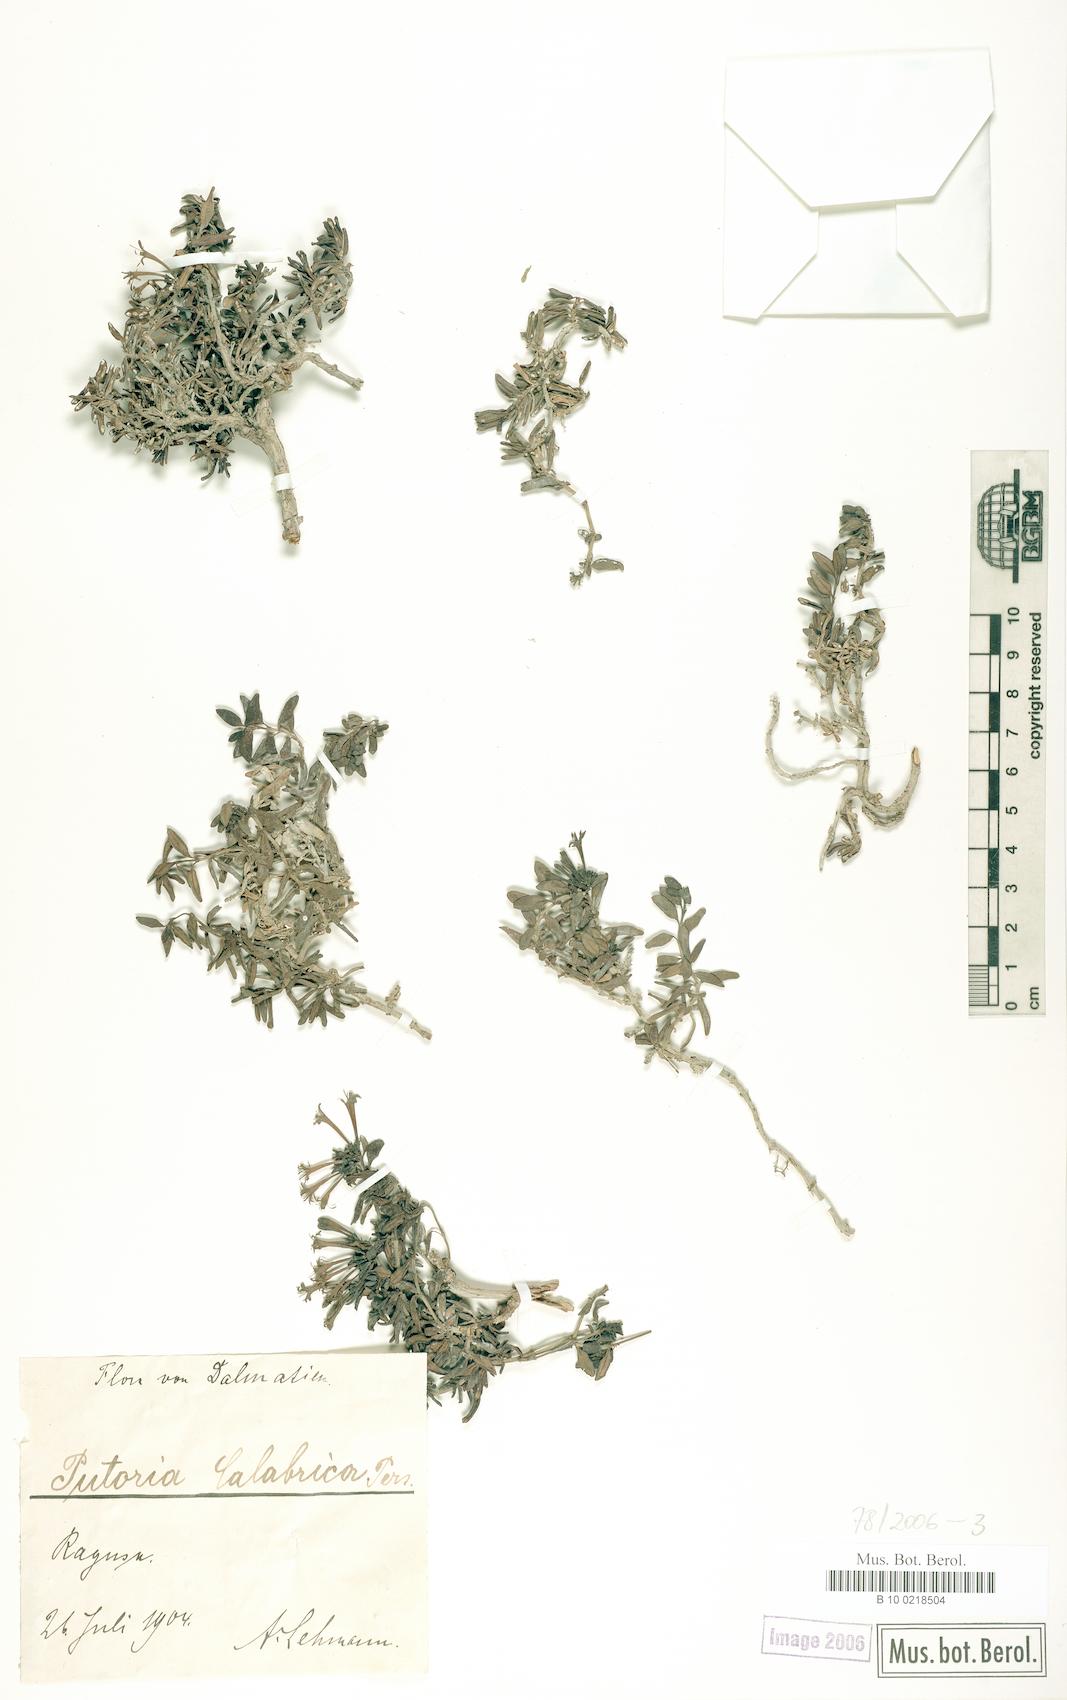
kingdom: Plantae
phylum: Tracheophyta
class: Magnoliopsida
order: Gentianales
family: Rubiaceae
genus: Plocama
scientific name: Plocama calabrica
